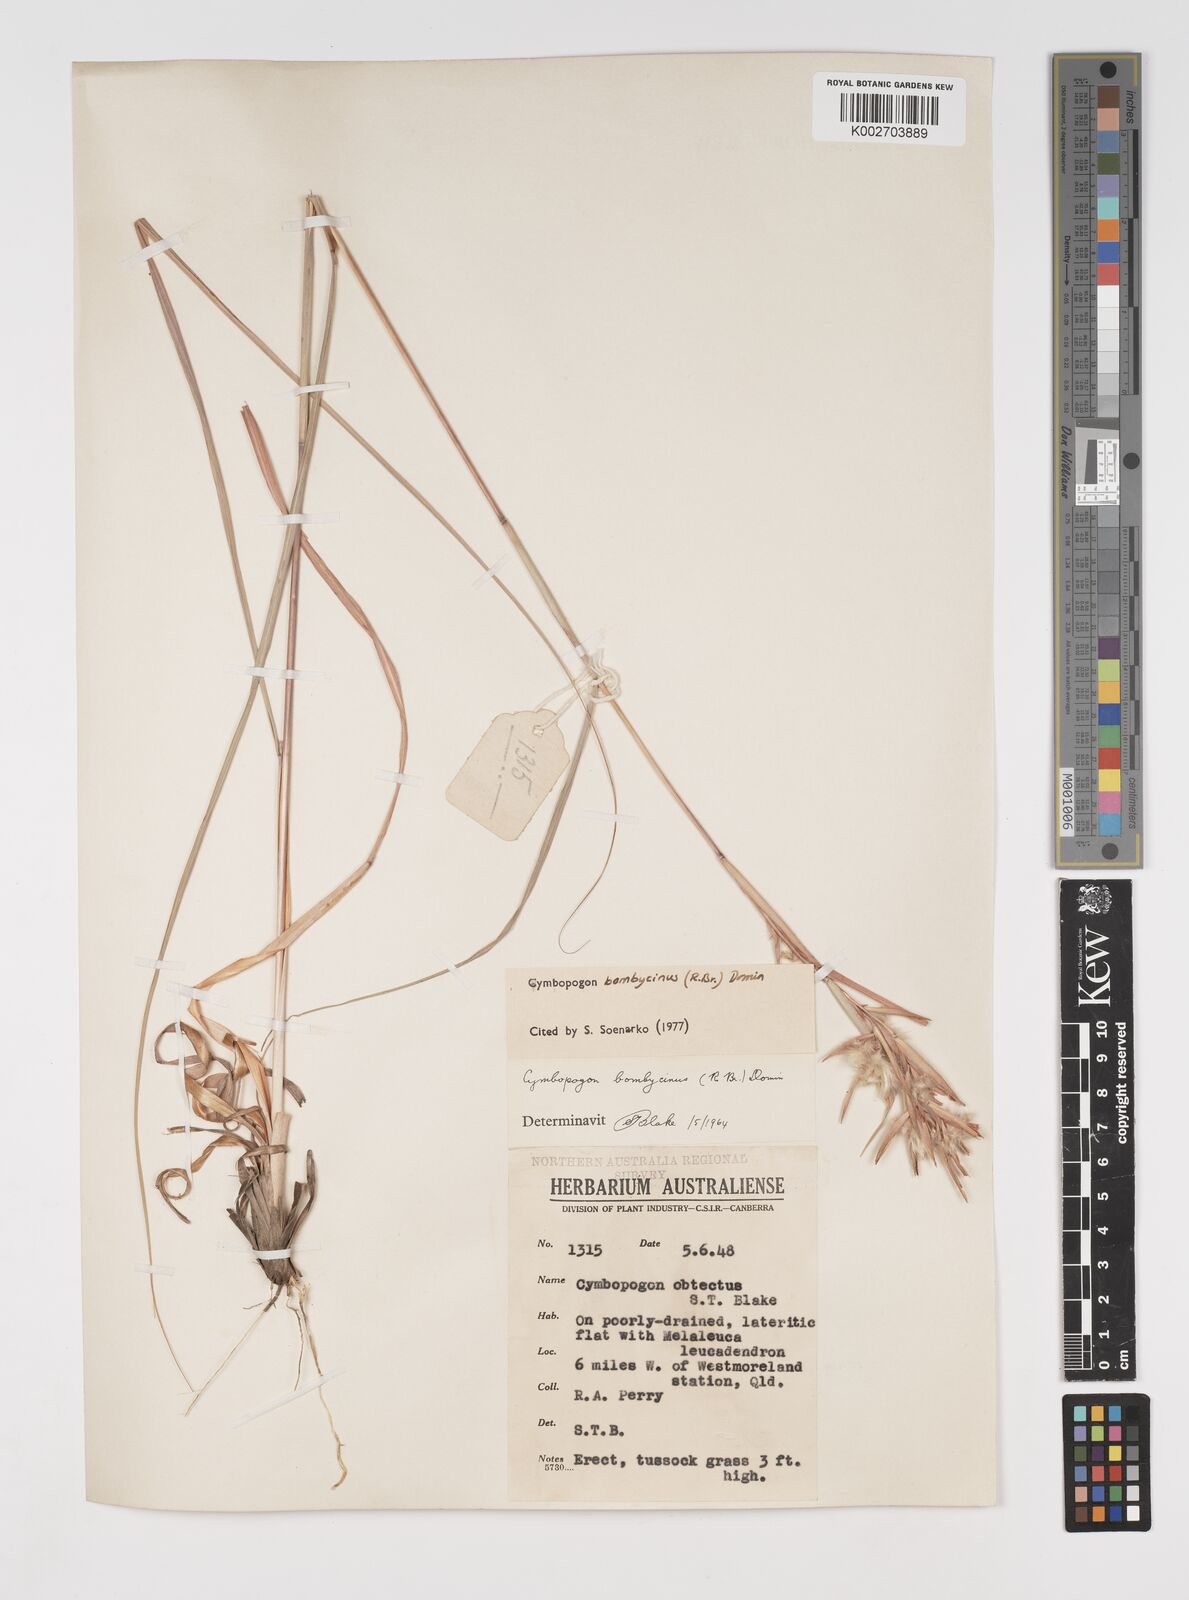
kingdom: Plantae
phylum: Tracheophyta
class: Liliopsida
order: Poales
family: Poaceae
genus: Cymbopogon
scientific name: Cymbopogon bombycinus
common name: Citronella grass
